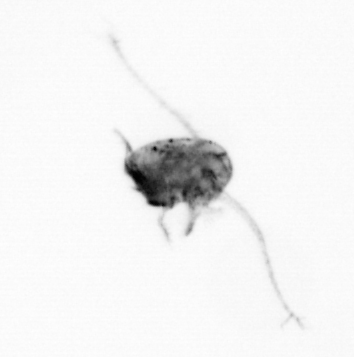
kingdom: Animalia
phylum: Arthropoda
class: Copepoda
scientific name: Copepoda
